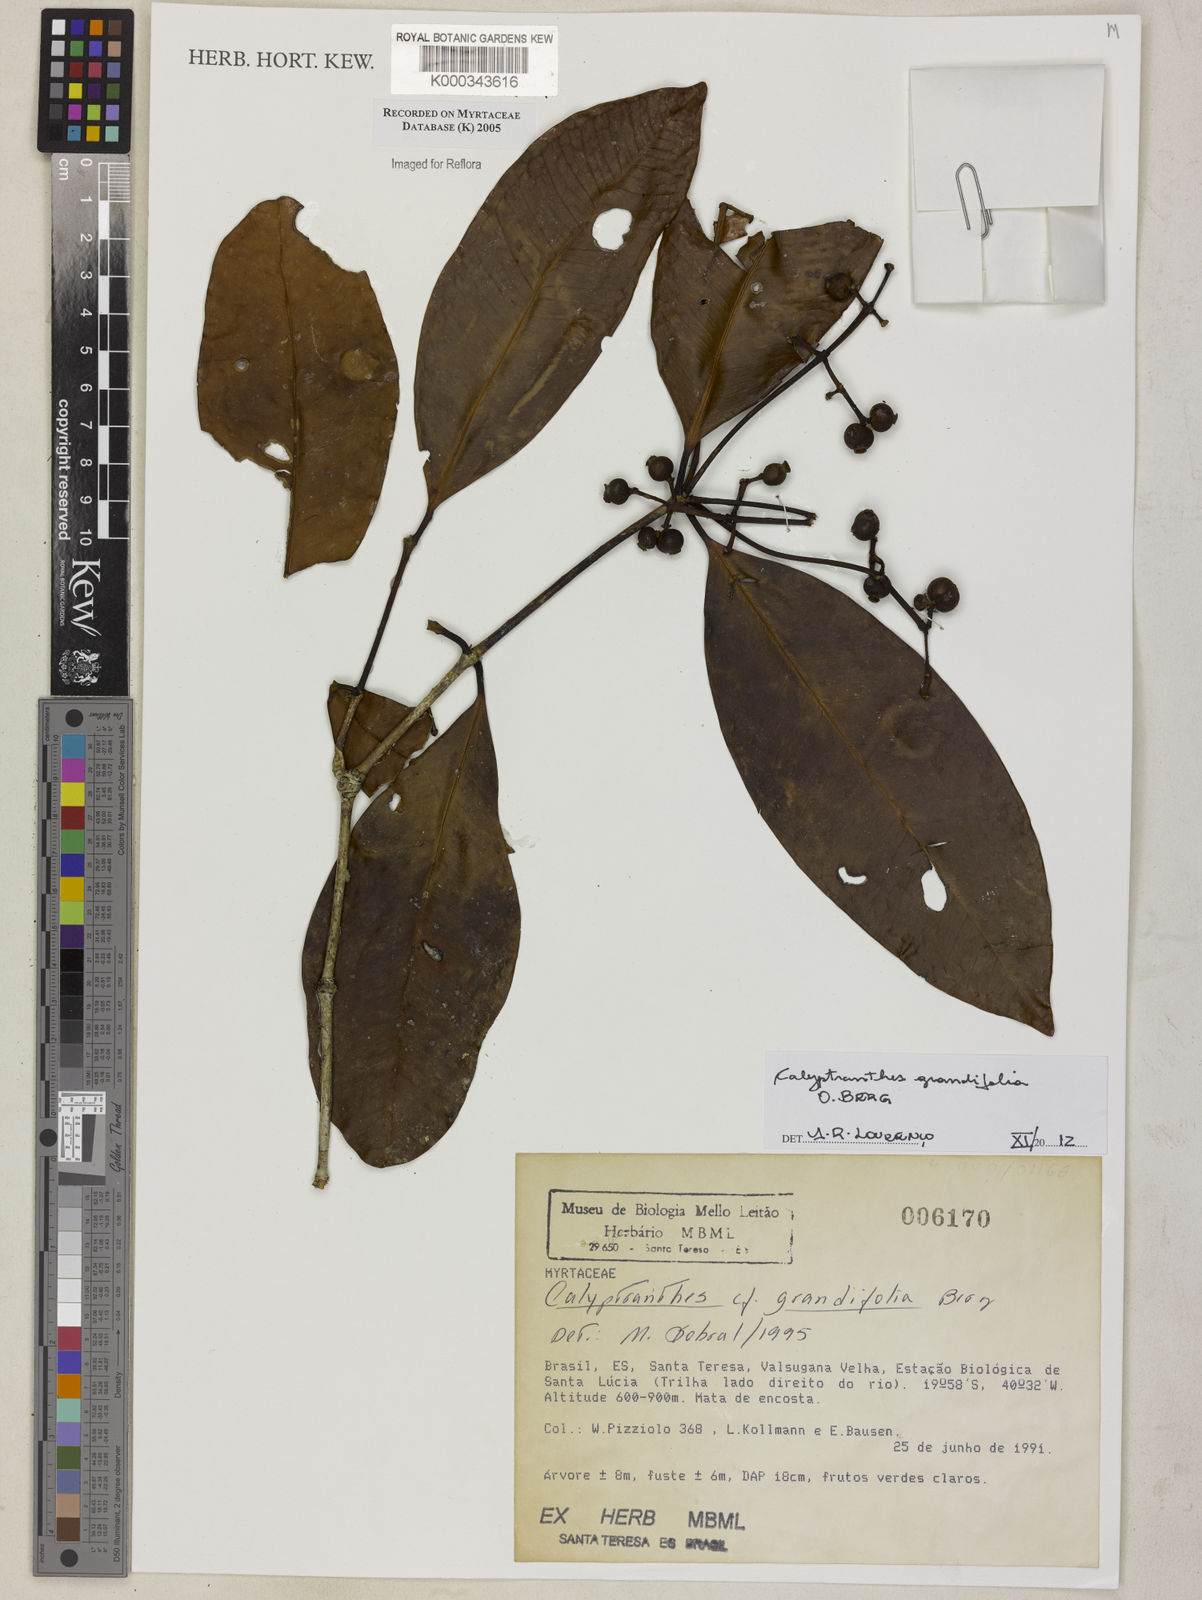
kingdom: Plantae
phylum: Tracheophyta
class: Magnoliopsida
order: Myrtales
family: Myrtaceae
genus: Calyptranthes
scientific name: Calyptranthes grandifolia
